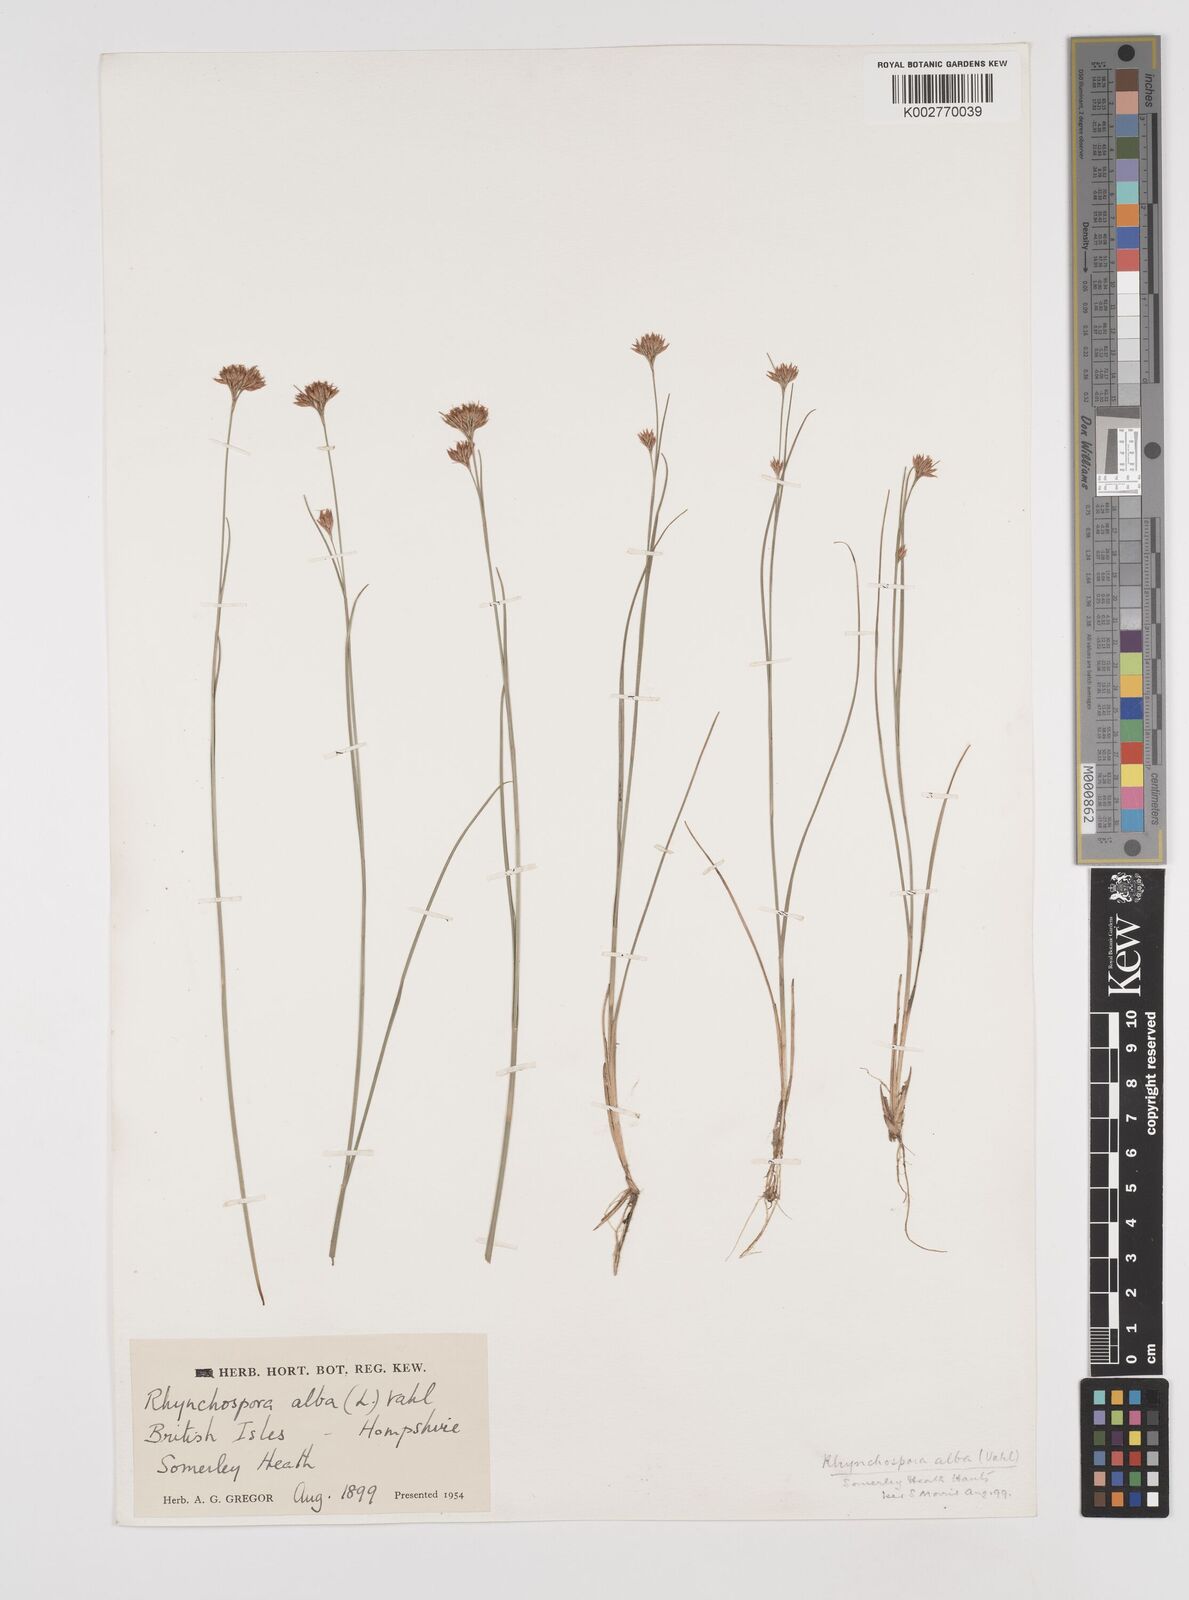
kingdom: Plantae
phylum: Tracheophyta
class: Liliopsida
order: Poales
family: Cyperaceae
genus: Rhynchospora
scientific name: Rhynchospora alba
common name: White beak-sedge
